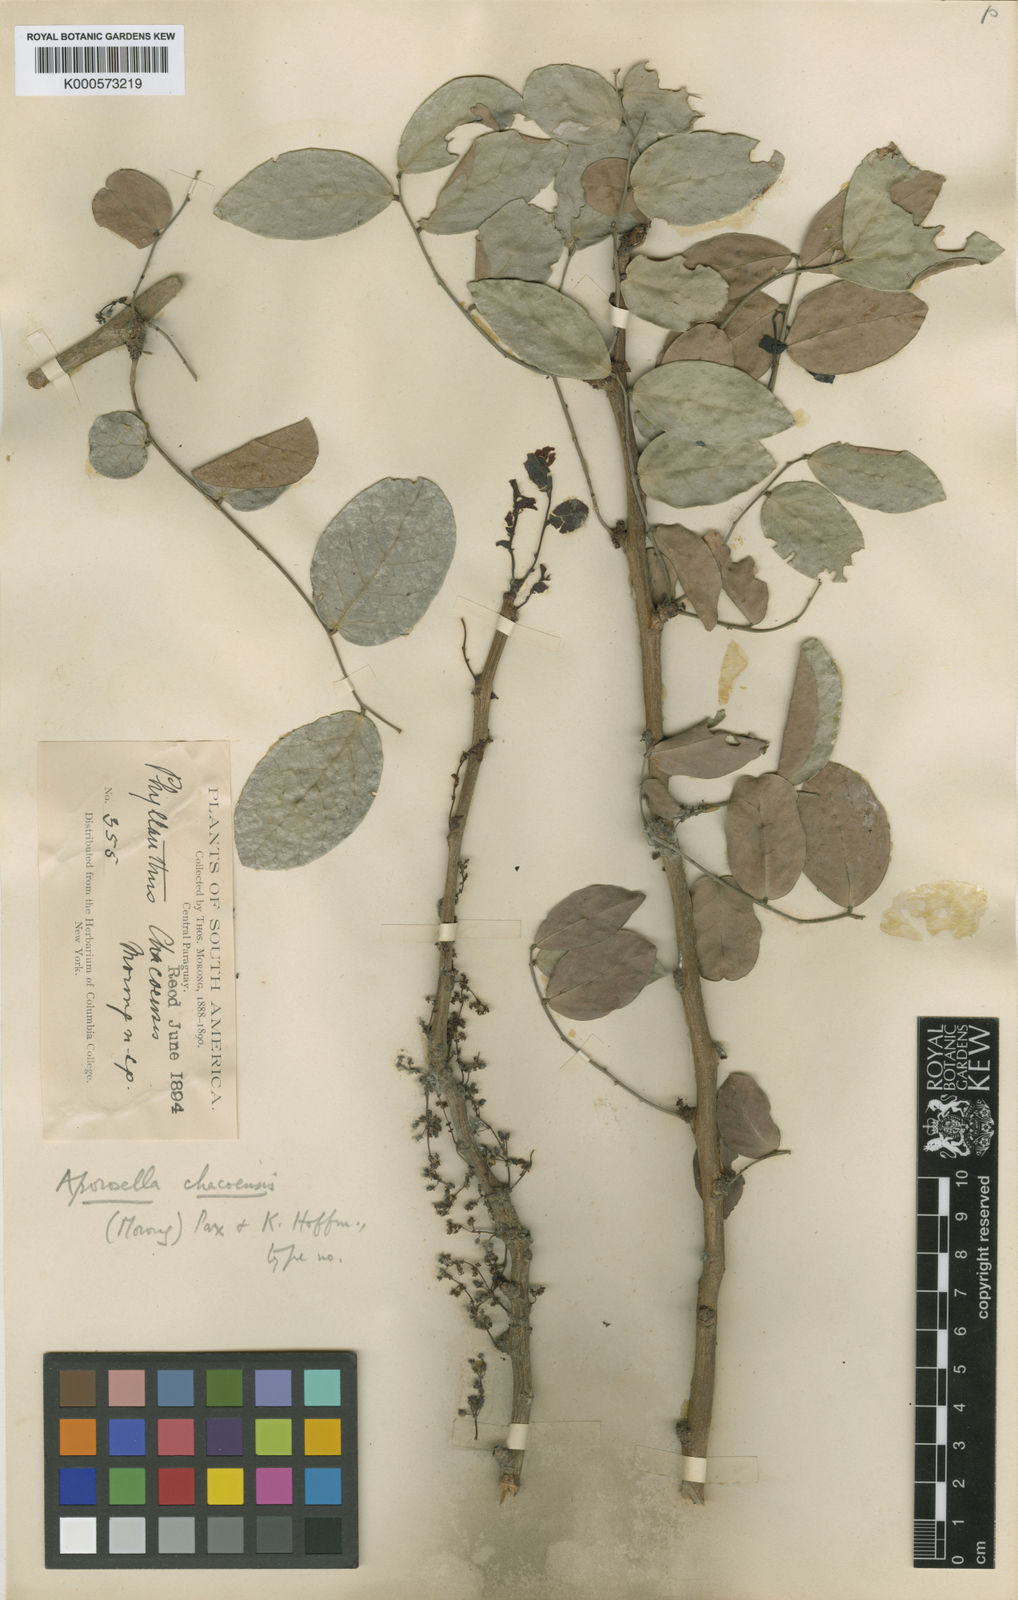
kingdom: Plantae
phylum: Tracheophyta
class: Magnoliopsida
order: Malpighiales
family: Phyllanthaceae
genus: Phyllanthus
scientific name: Phyllanthus chacoensis
